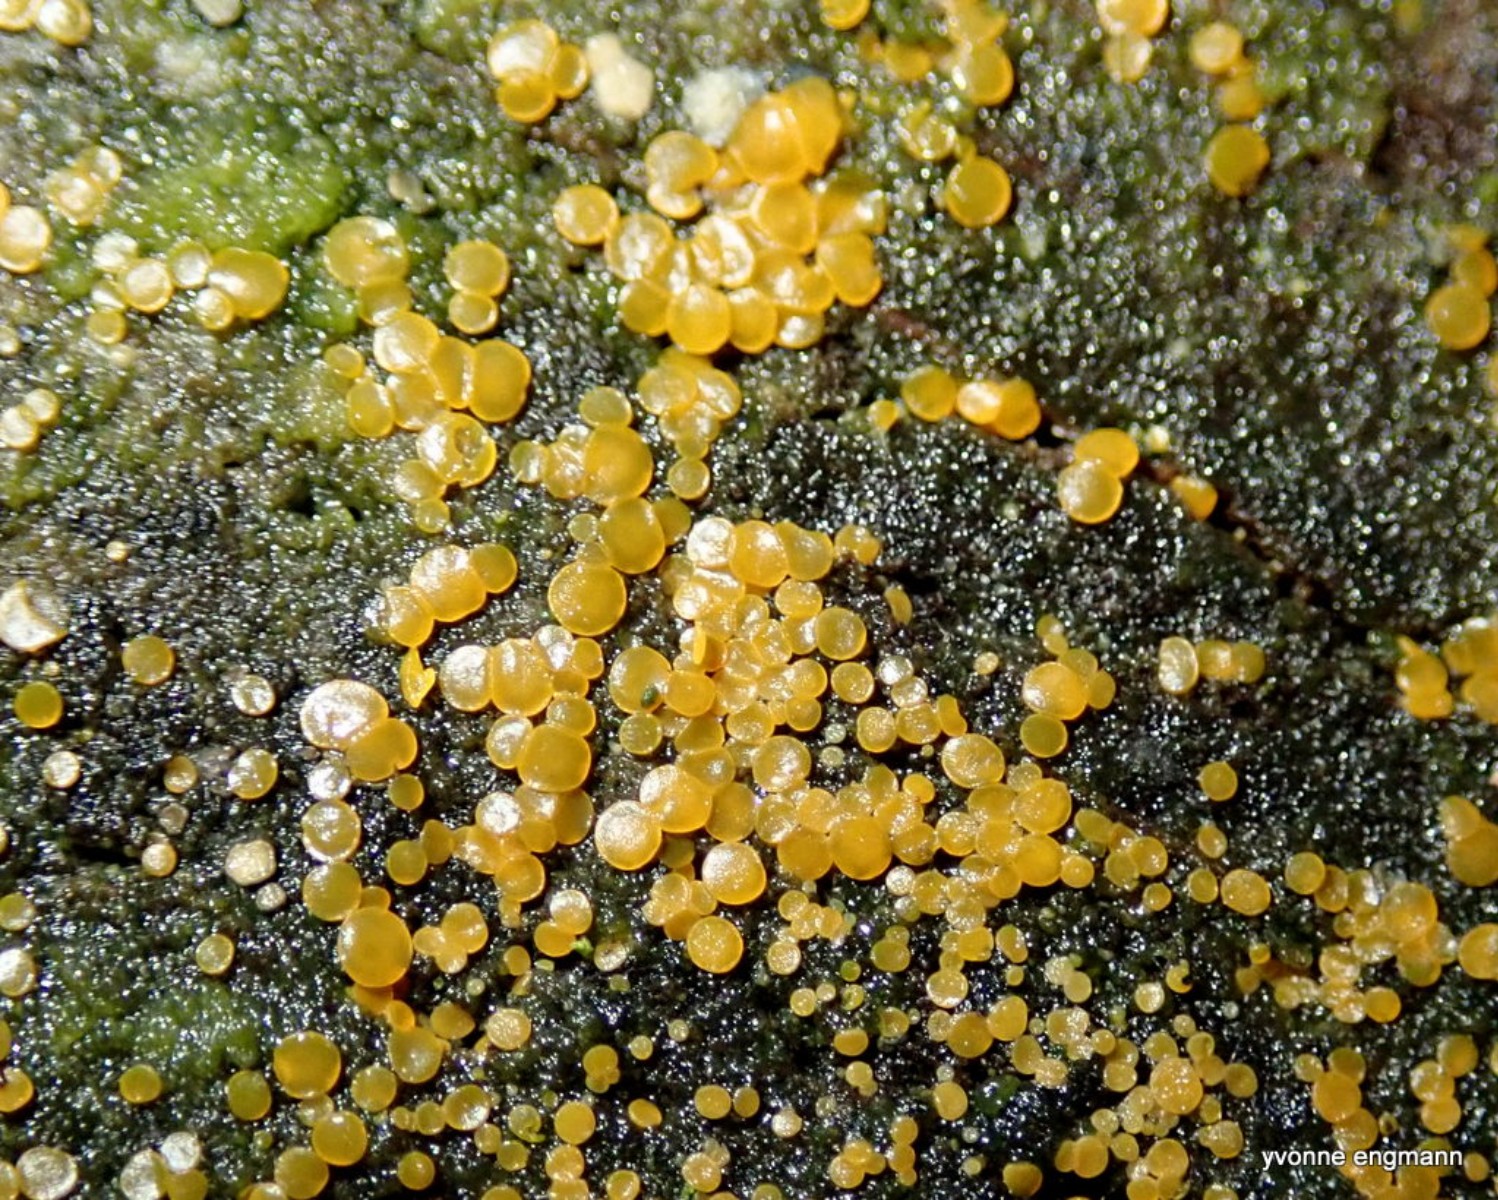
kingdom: Fungi
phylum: Ascomycota
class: Orbiliomycetes
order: Orbiliales
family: Orbiliaceae
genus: Orbilia
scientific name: Orbilia xanthostigma
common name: krumsporet voksskive
